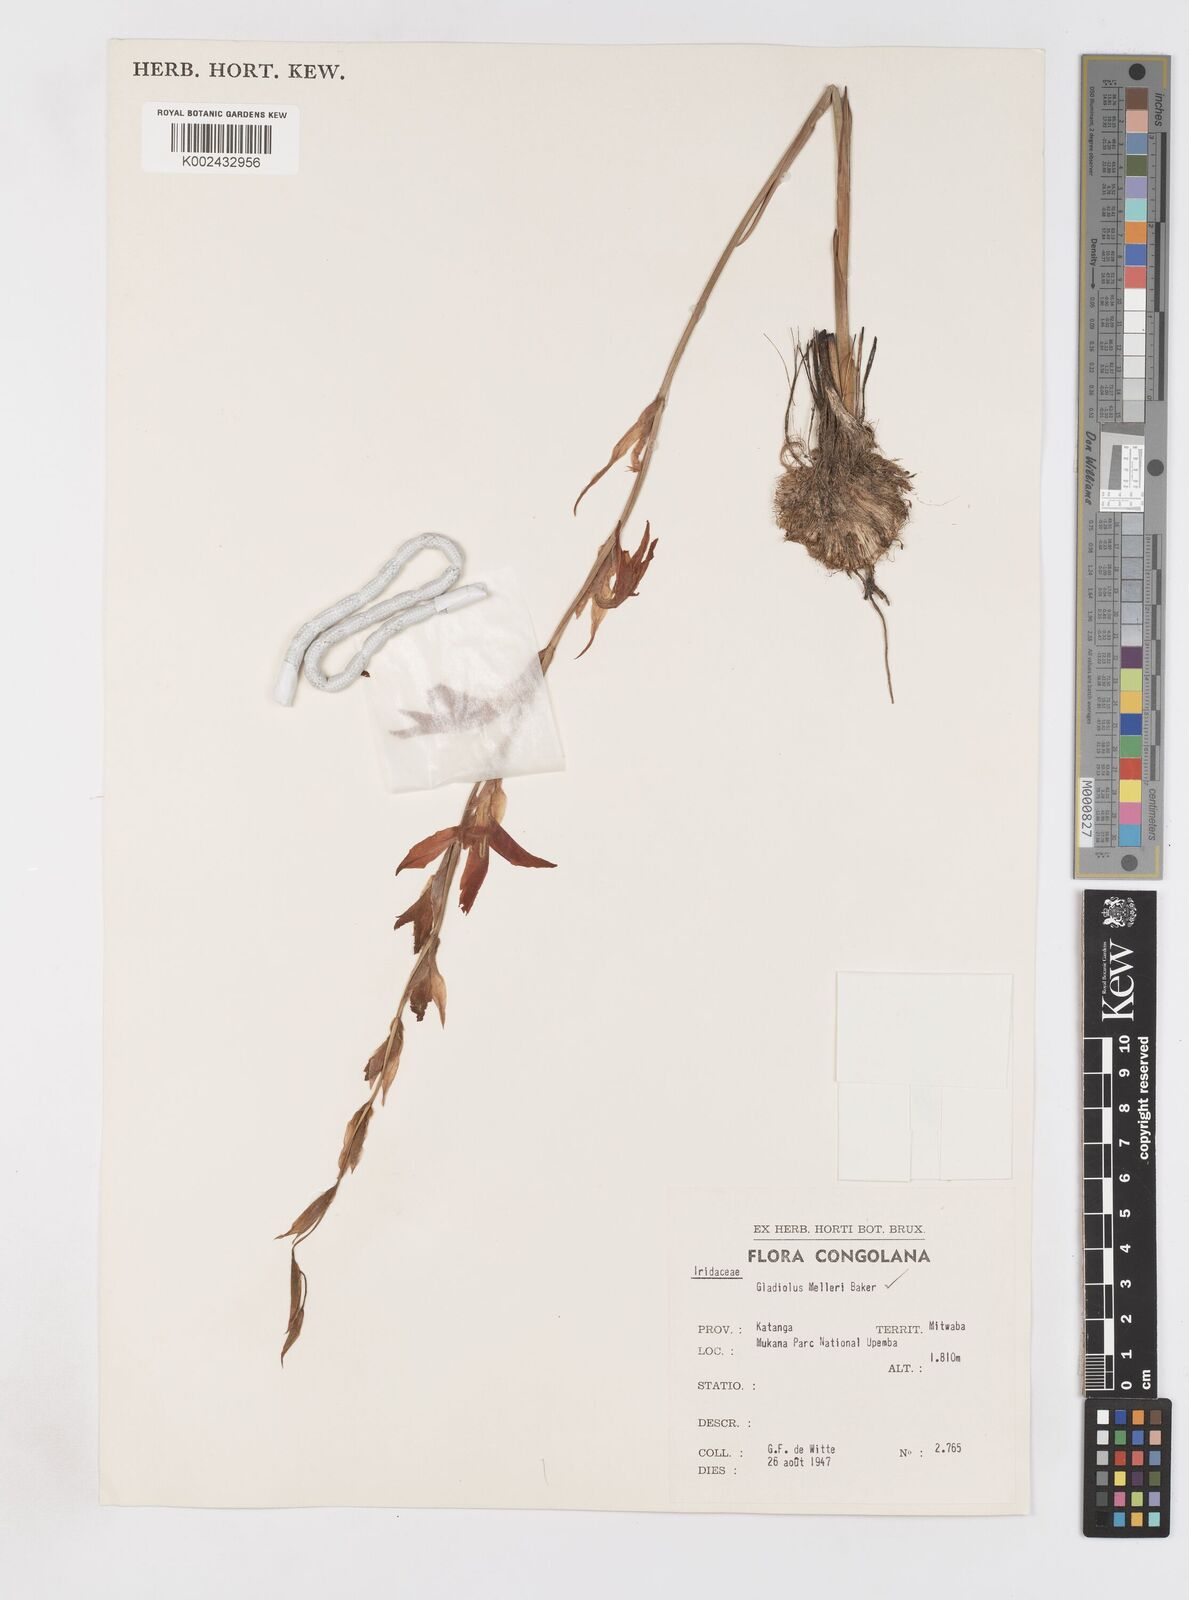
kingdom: Plantae
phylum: Tracheophyta
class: Liliopsida
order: Asparagales
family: Iridaceae
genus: Gladiolus
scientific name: Gladiolus melleri
